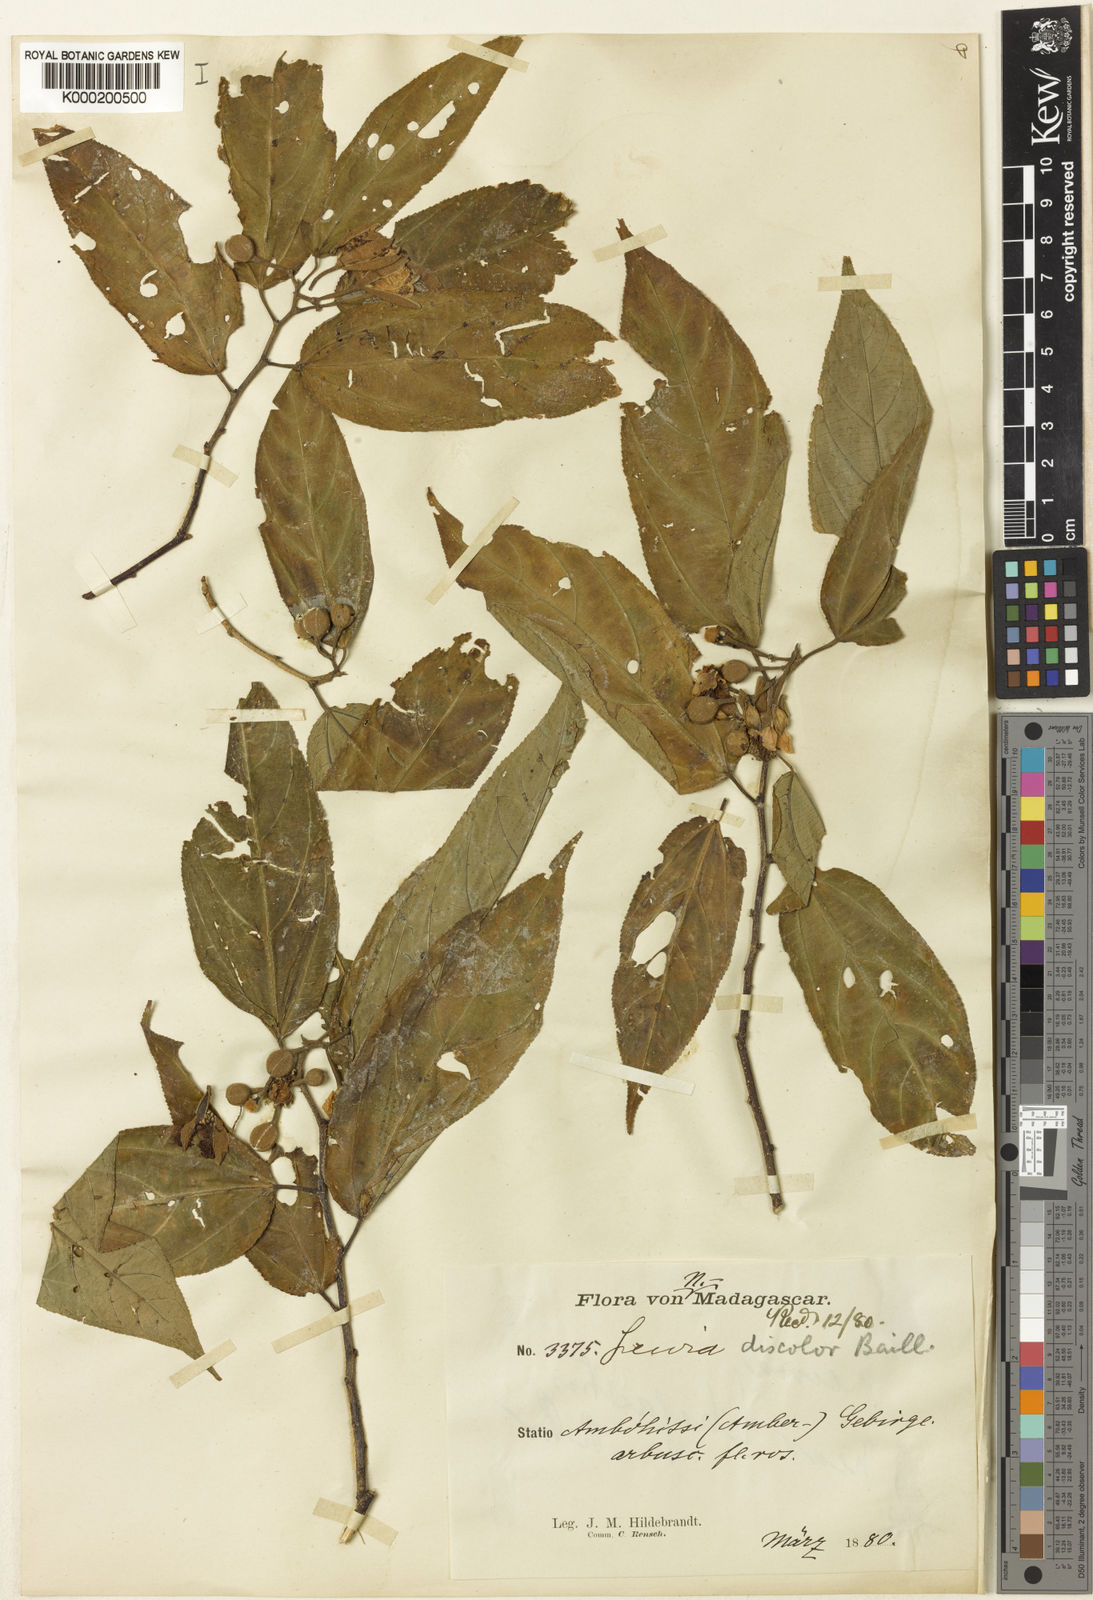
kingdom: Plantae
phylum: Tracheophyta
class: Magnoliopsida
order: Malvales
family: Malvaceae
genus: Grewia
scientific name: Grewia madagascariensis
